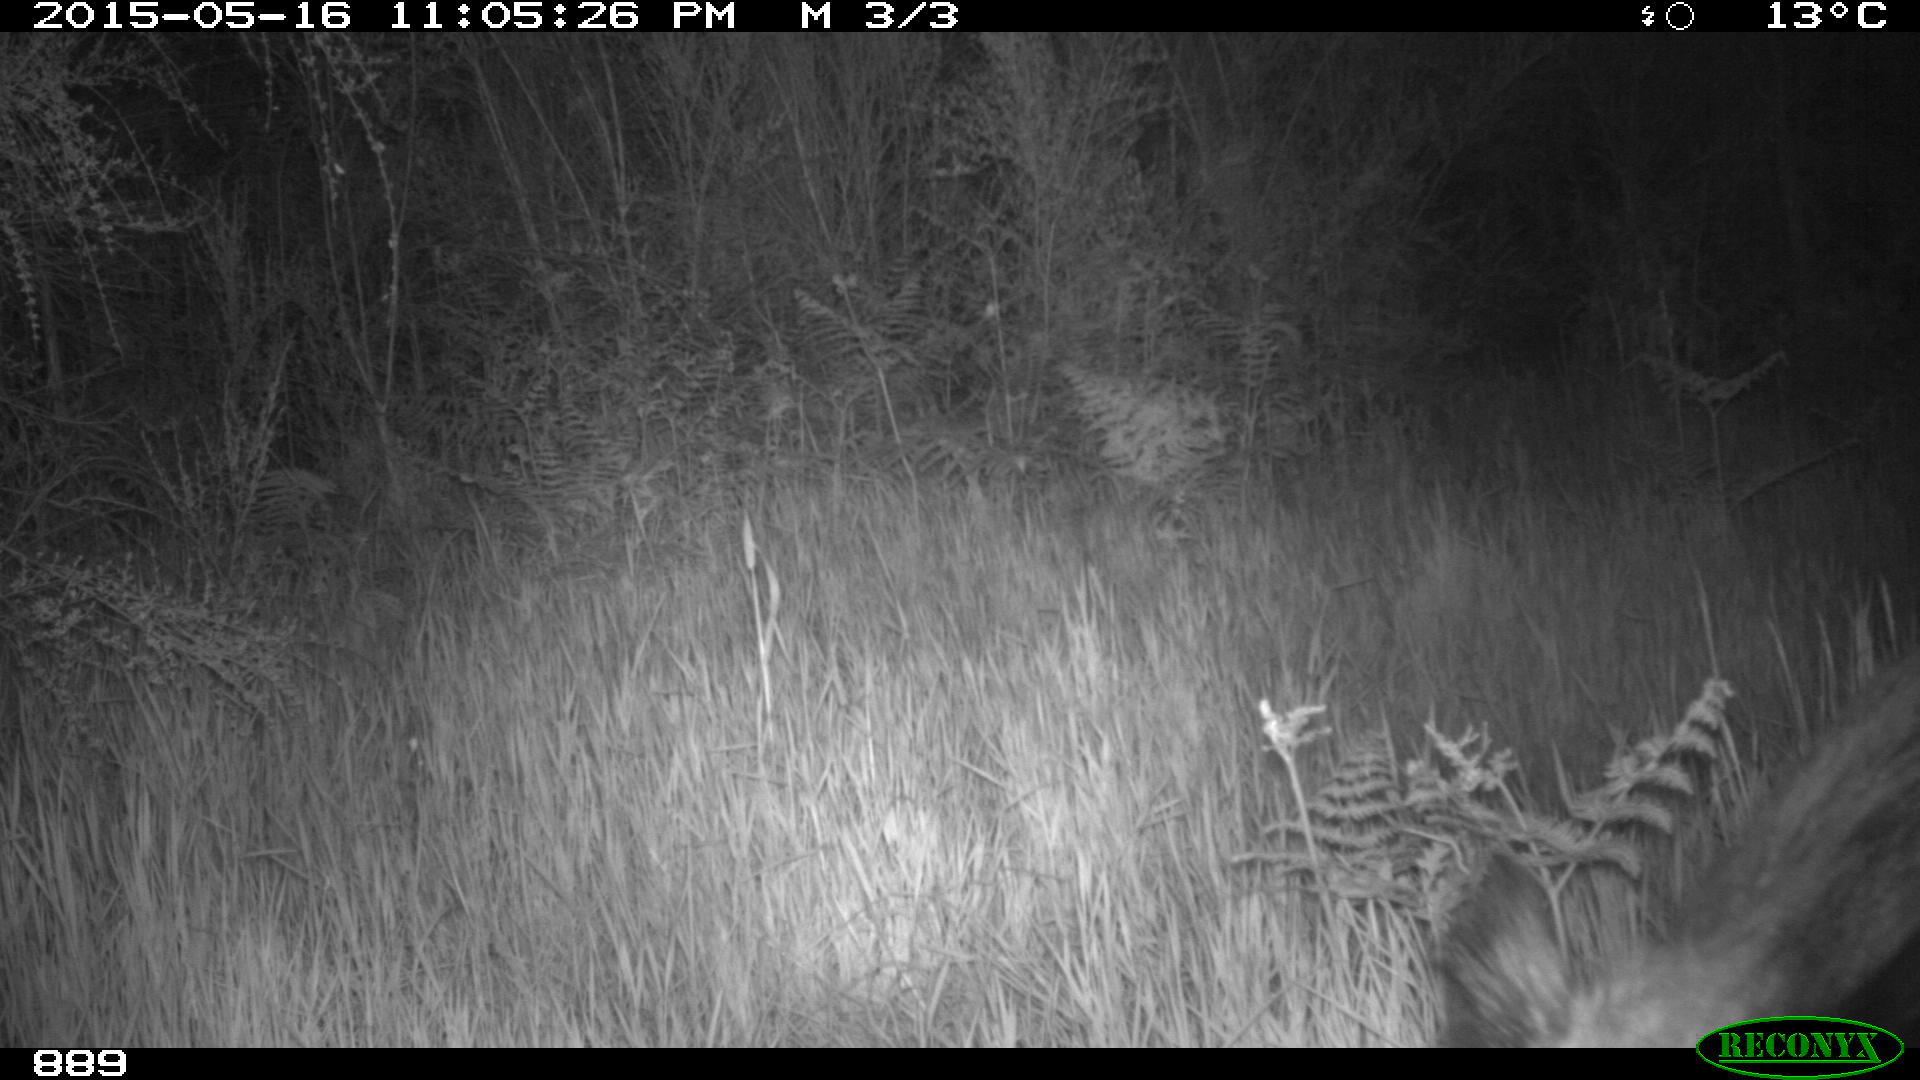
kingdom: Animalia
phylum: Chordata
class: Mammalia
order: Artiodactyla
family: Suidae
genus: Sus
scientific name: Sus scrofa
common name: Wild boar
